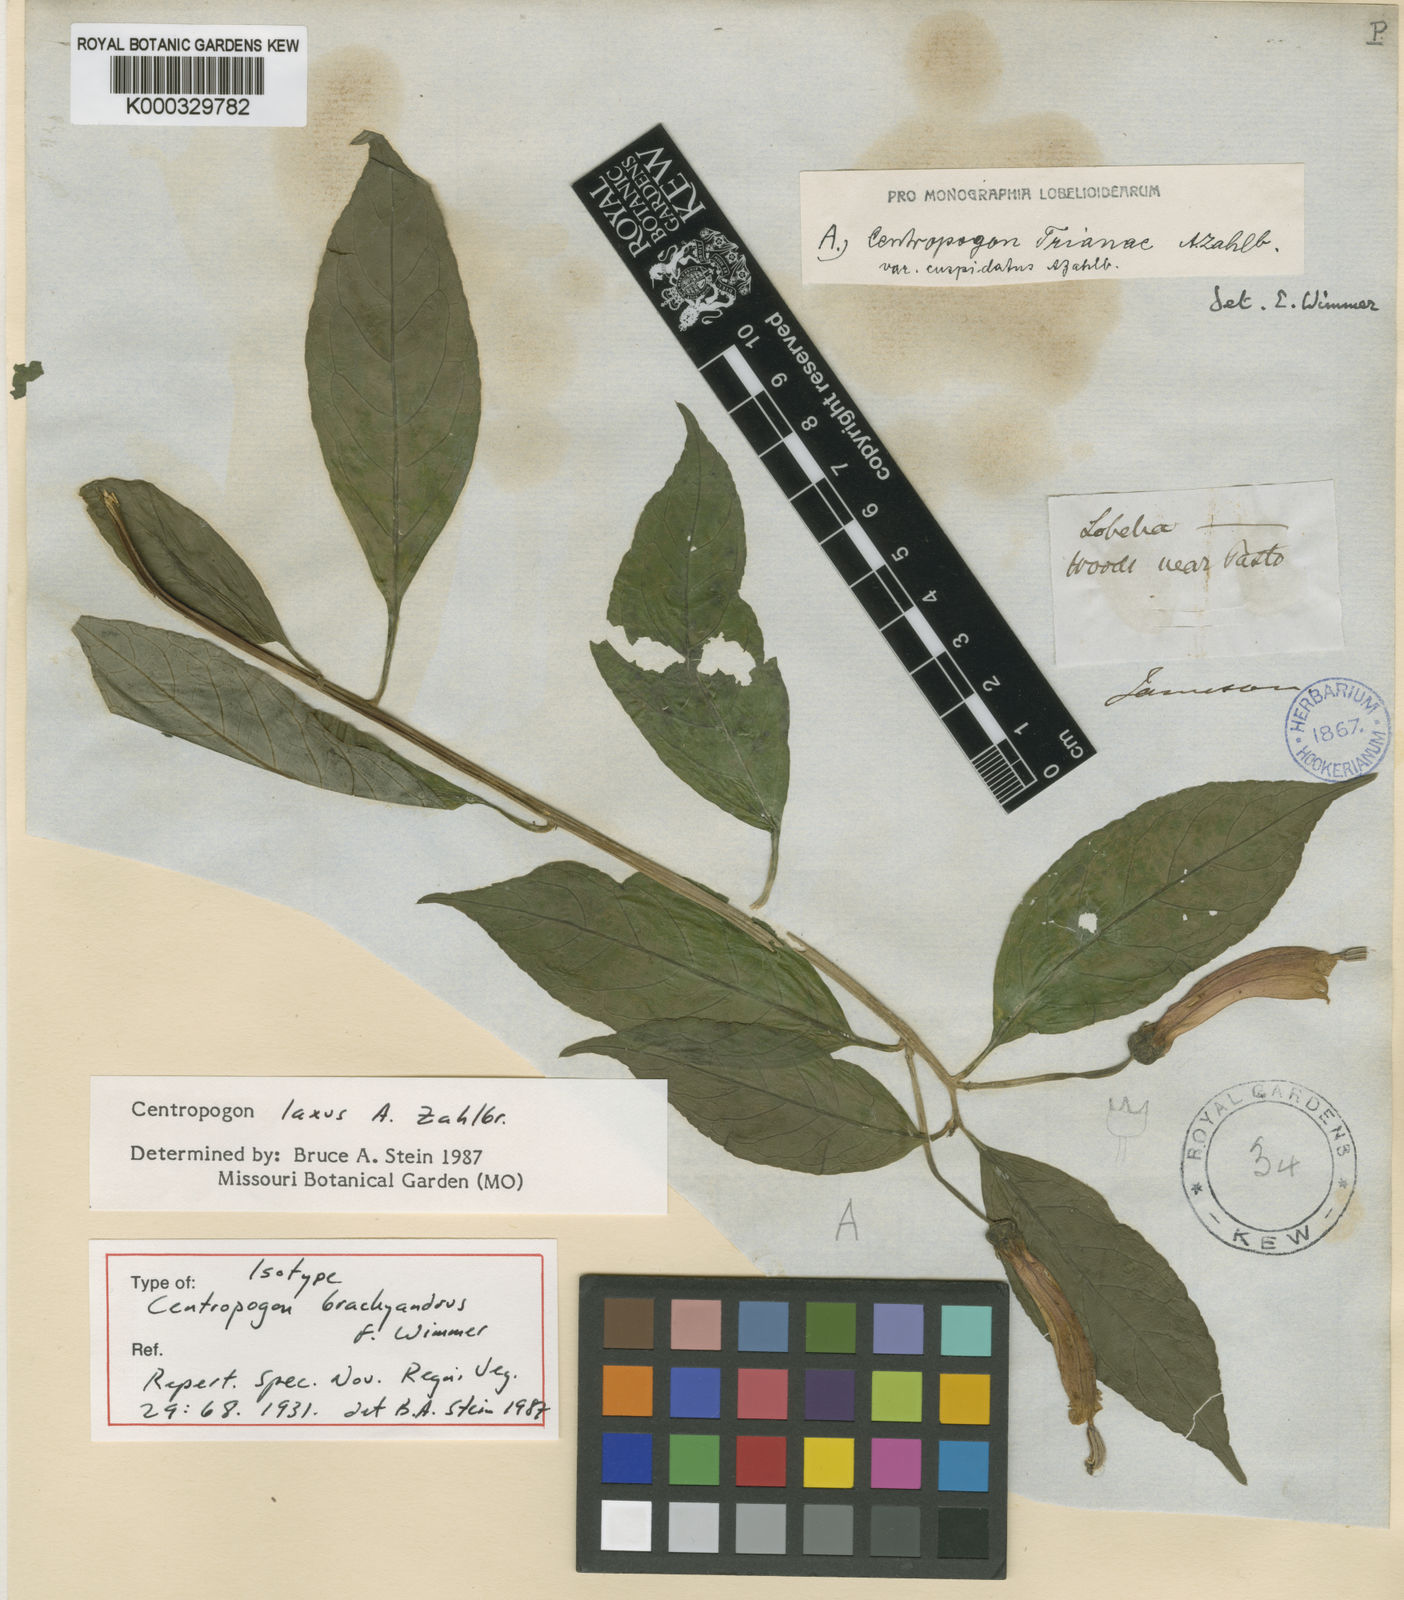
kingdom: Plantae
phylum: Tracheophyta
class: Magnoliopsida
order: Asterales
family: Campanulaceae
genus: Centropogon
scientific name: Centropogon laxus
